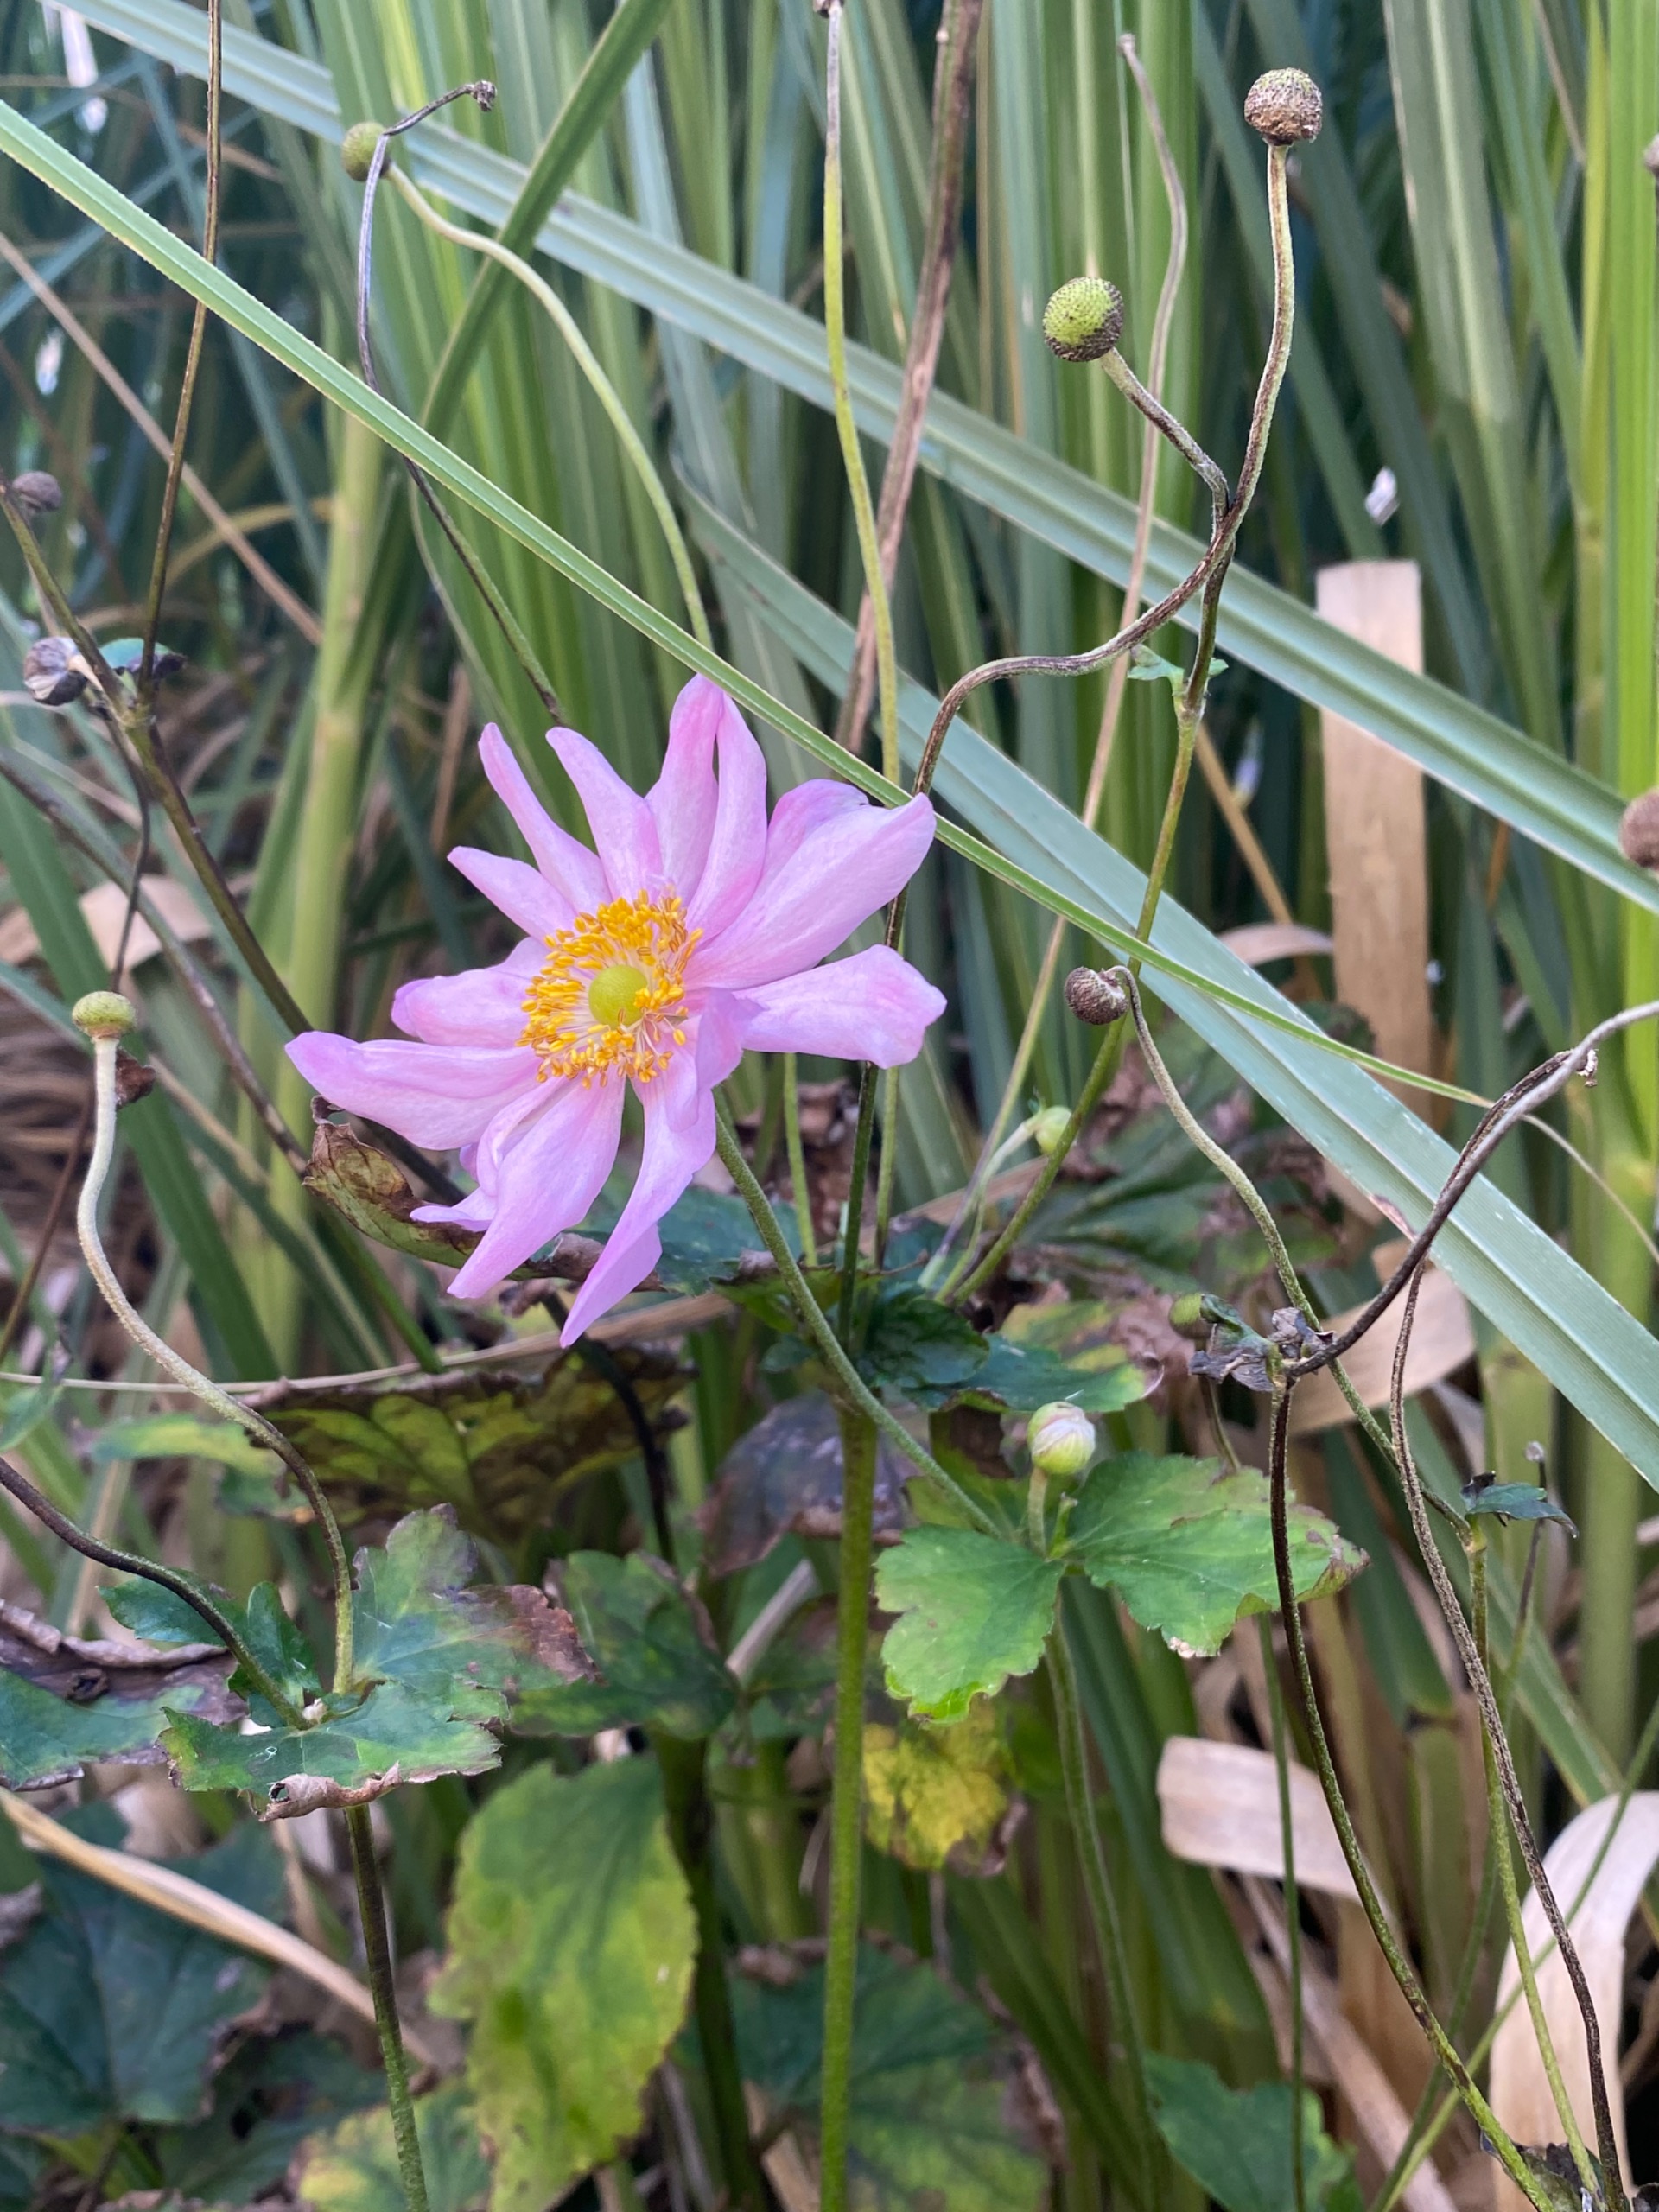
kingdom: Plantae
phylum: Tracheophyta
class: Magnoliopsida
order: Ranunculales
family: Ranunculaceae
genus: Eriocapitella
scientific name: Eriocapitella hupehensis
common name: Høst-anemone
